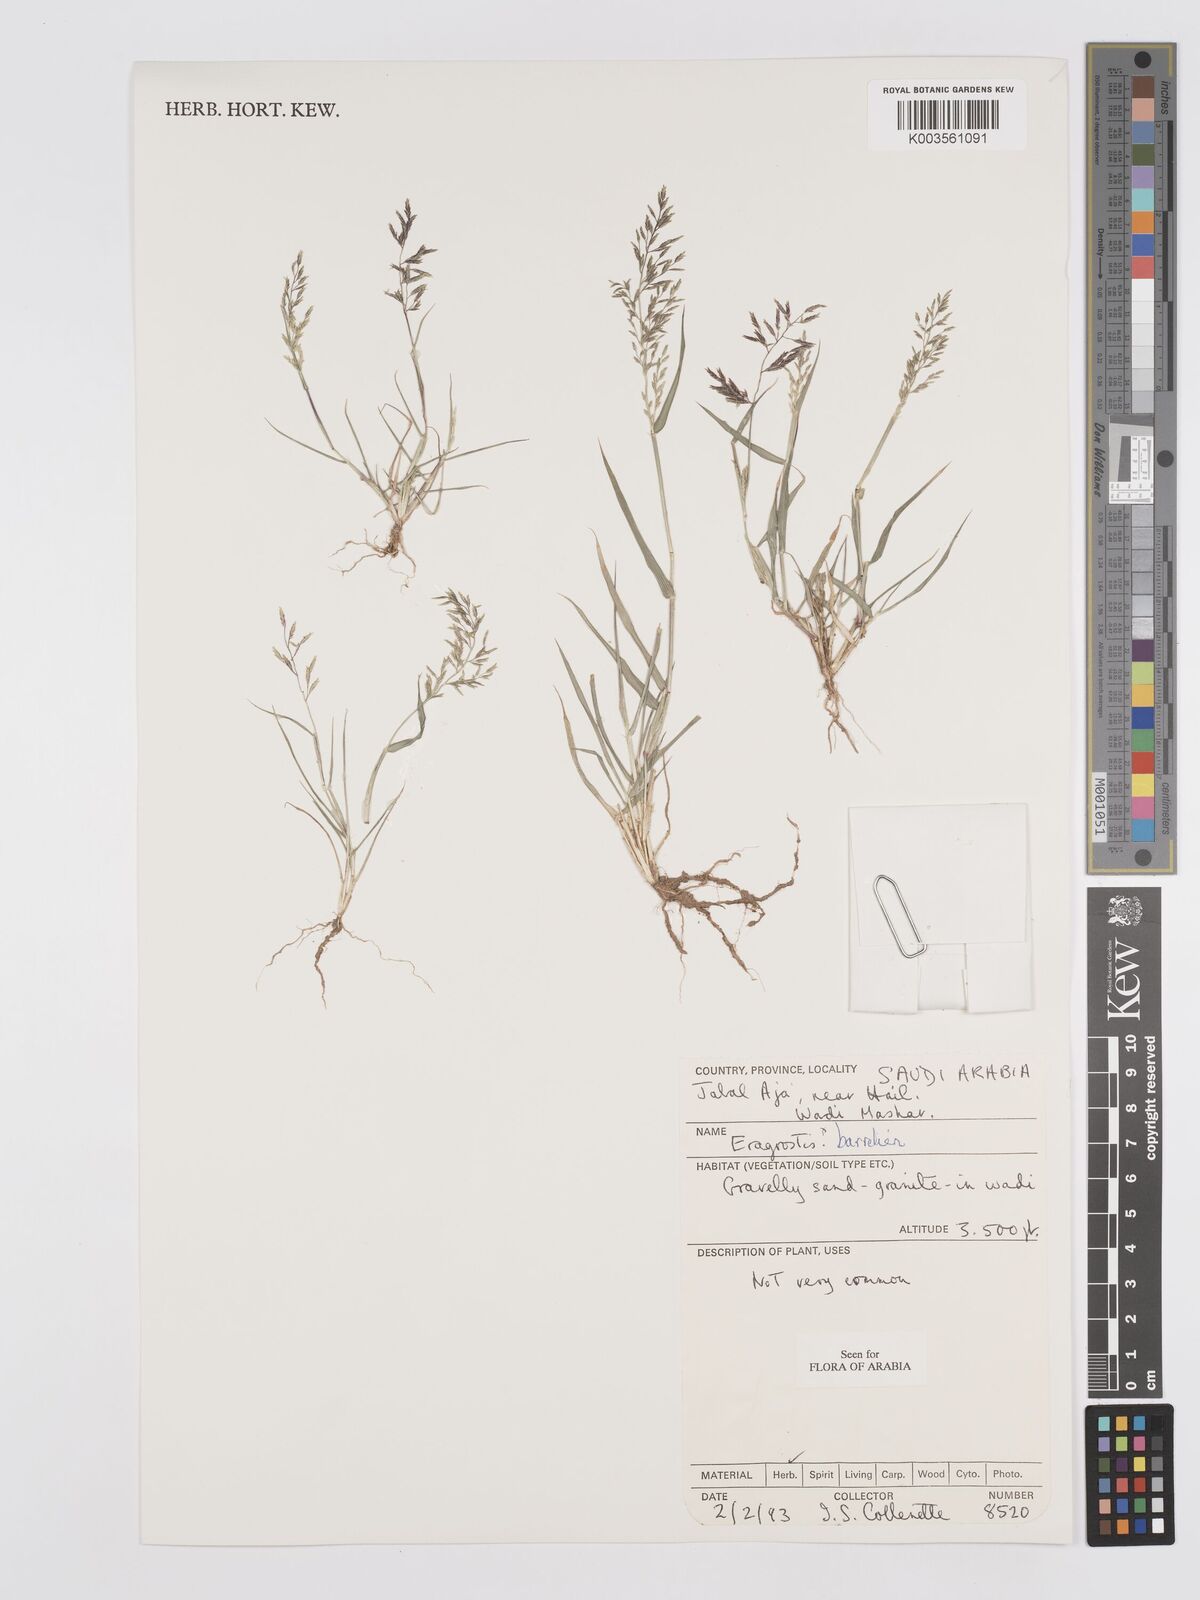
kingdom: Plantae
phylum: Tracheophyta
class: Liliopsida
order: Poales
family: Poaceae
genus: Eragrostis
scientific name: Eragrostis barrelieri
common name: Mediterranean lovegrass
